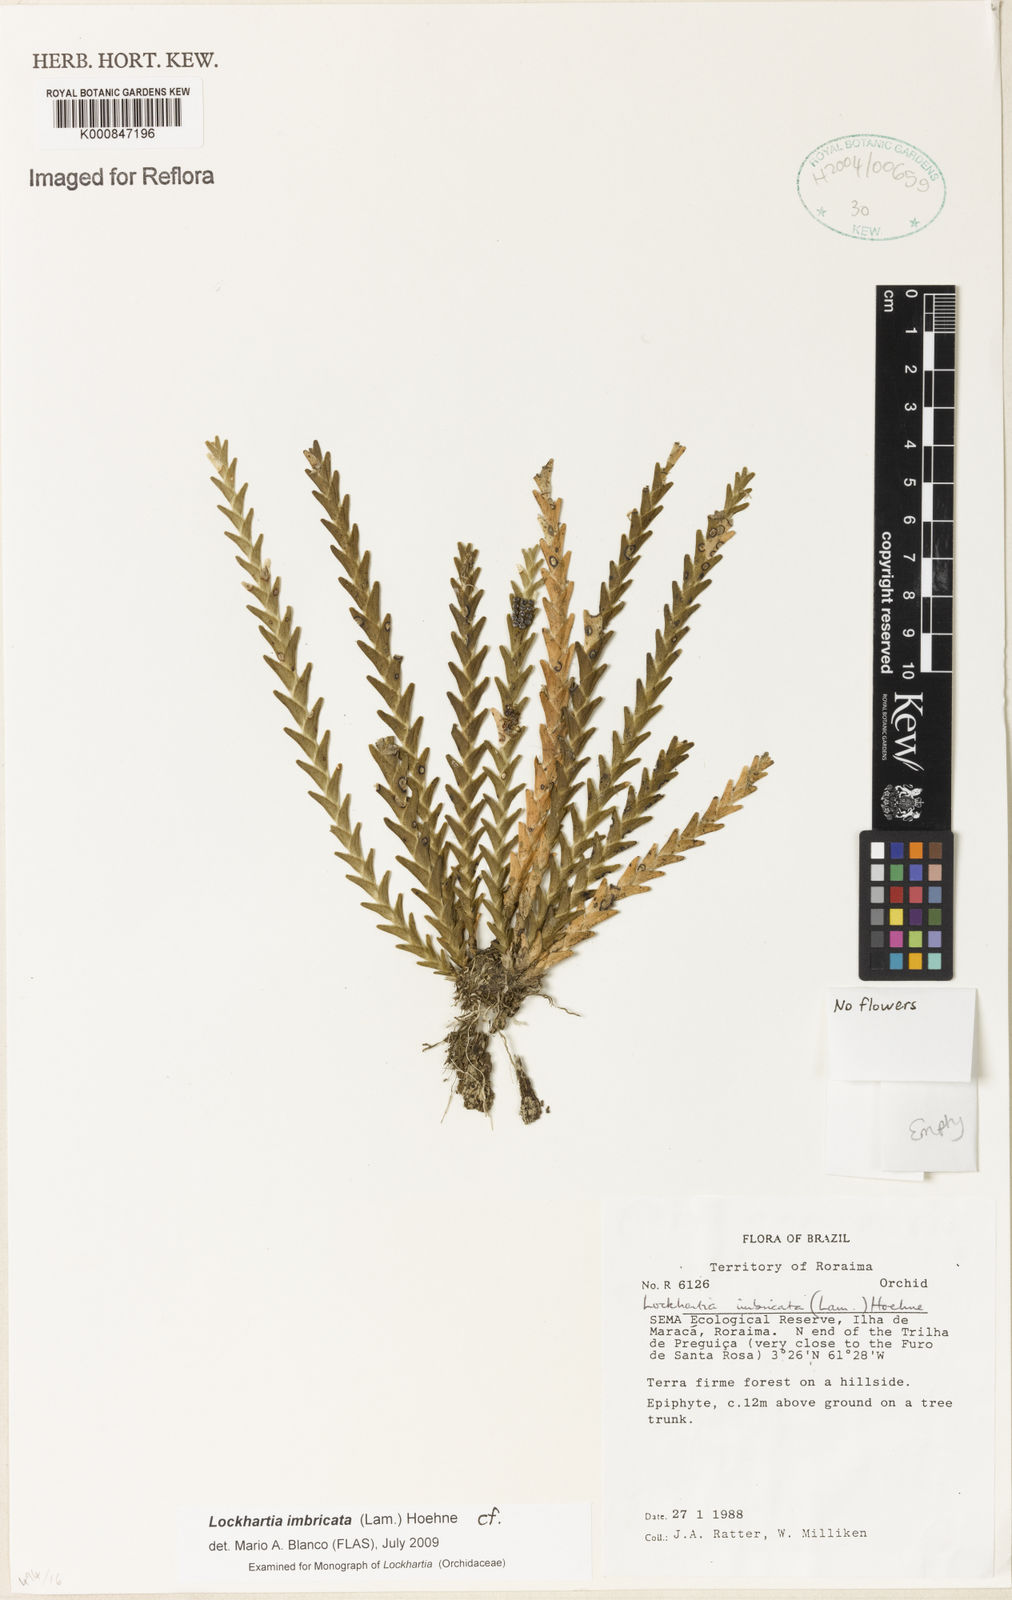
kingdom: Plantae
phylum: Tracheophyta
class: Liliopsida
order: Asparagales
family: Orchidaceae
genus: Lockhartia
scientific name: Lockhartia imbricata
